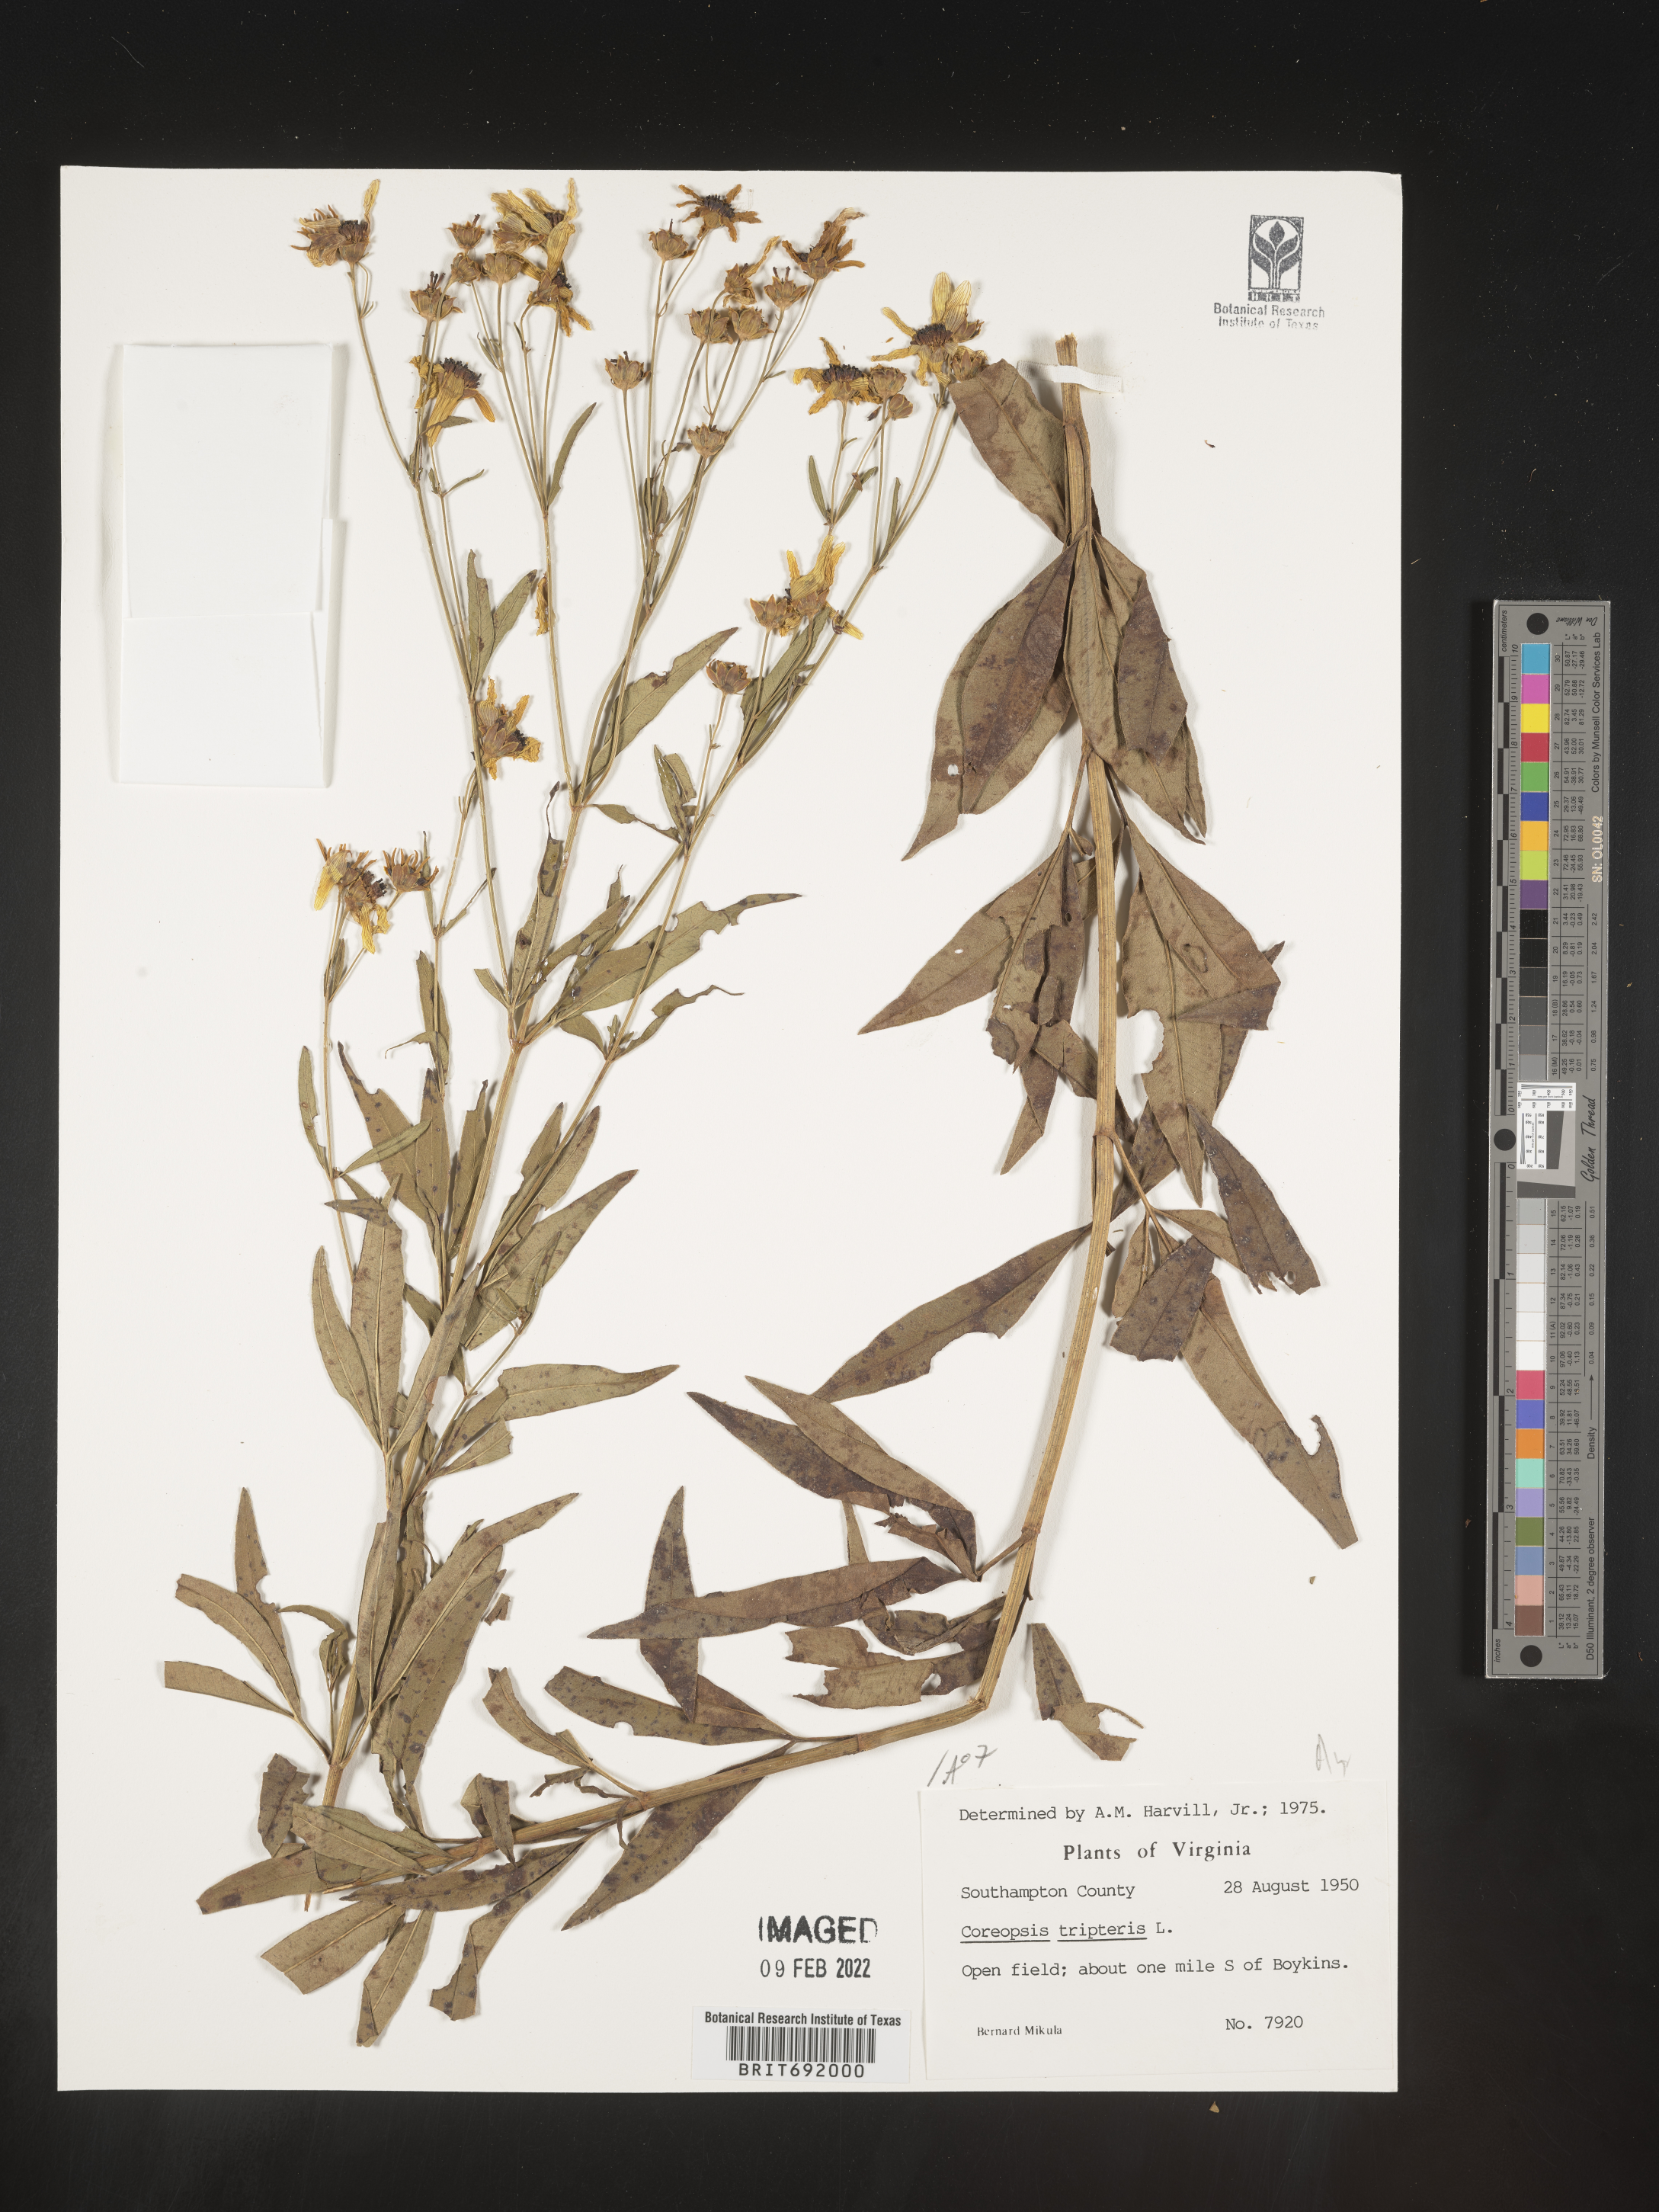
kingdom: Plantae
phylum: Tracheophyta
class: Magnoliopsida
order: Asterales
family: Asteraceae
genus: Coreopsis
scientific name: Coreopsis tripteris
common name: Tall coreopsis
